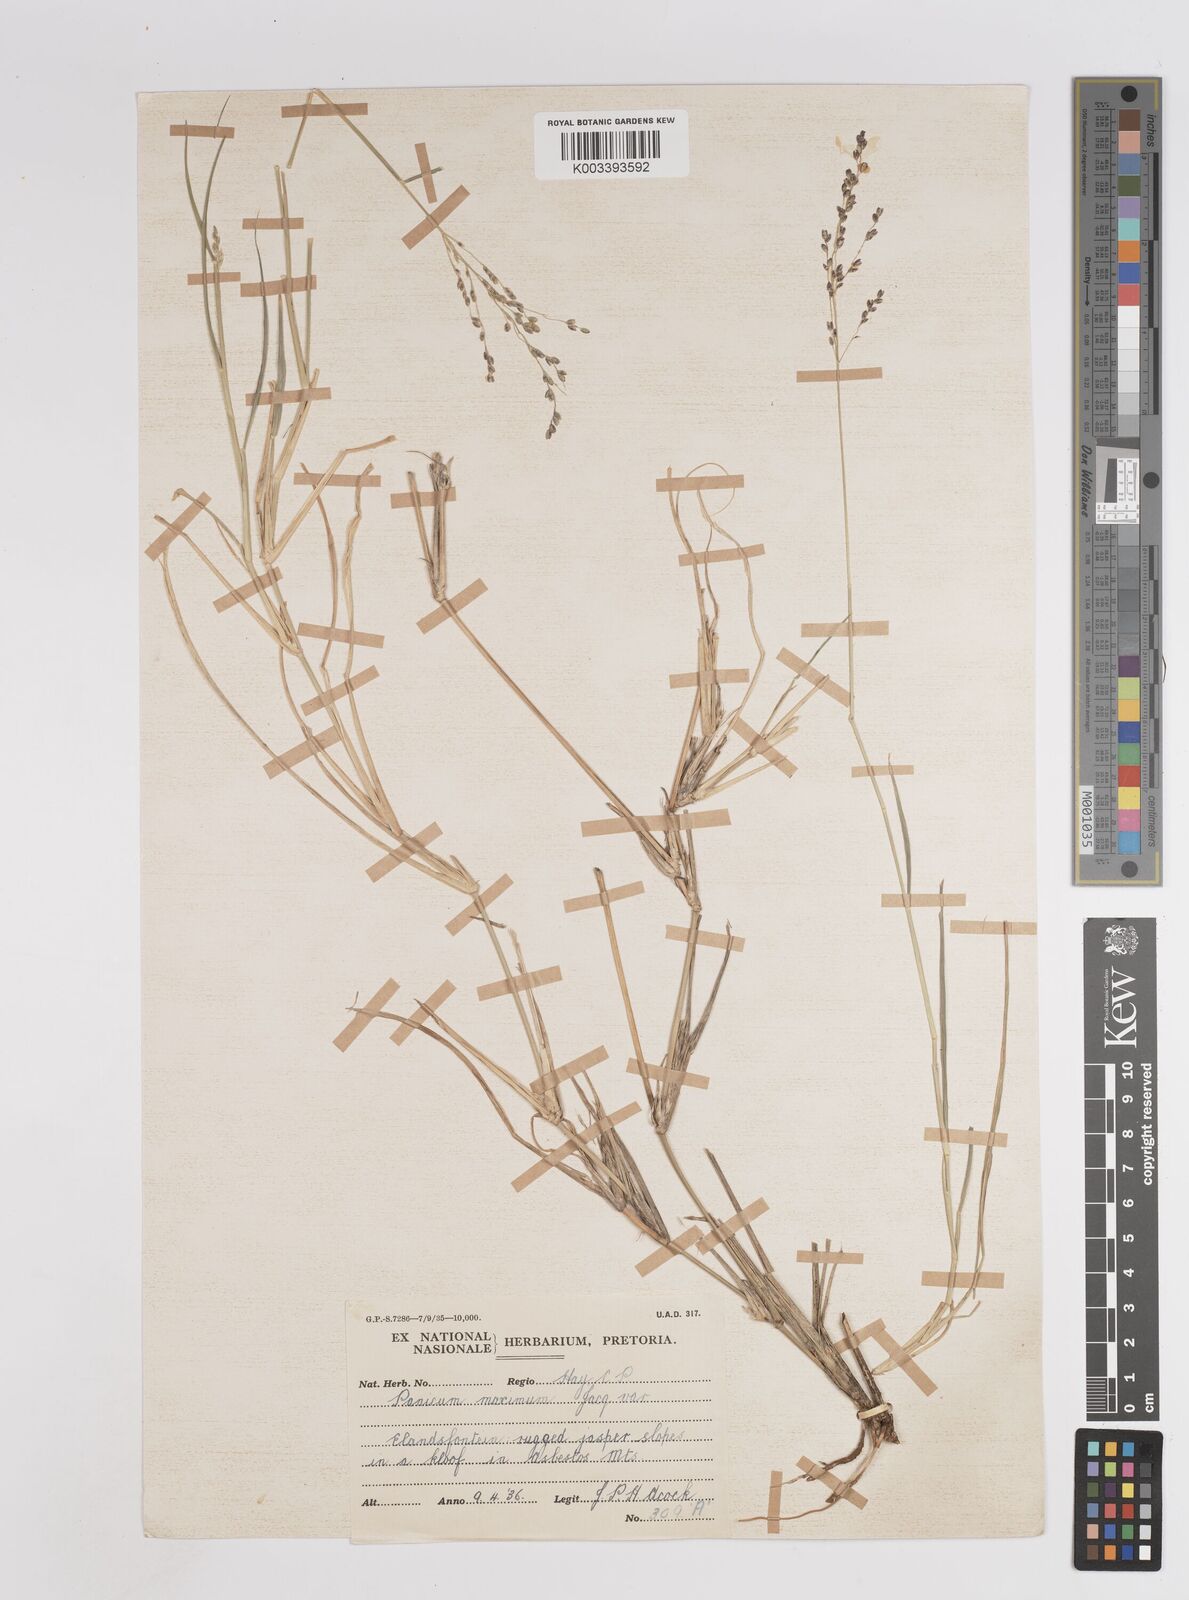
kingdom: Plantae
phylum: Tracheophyta
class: Liliopsida
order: Poales
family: Poaceae
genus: Megathyrsus
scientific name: Megathyrsus maximus
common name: Guineagrass
